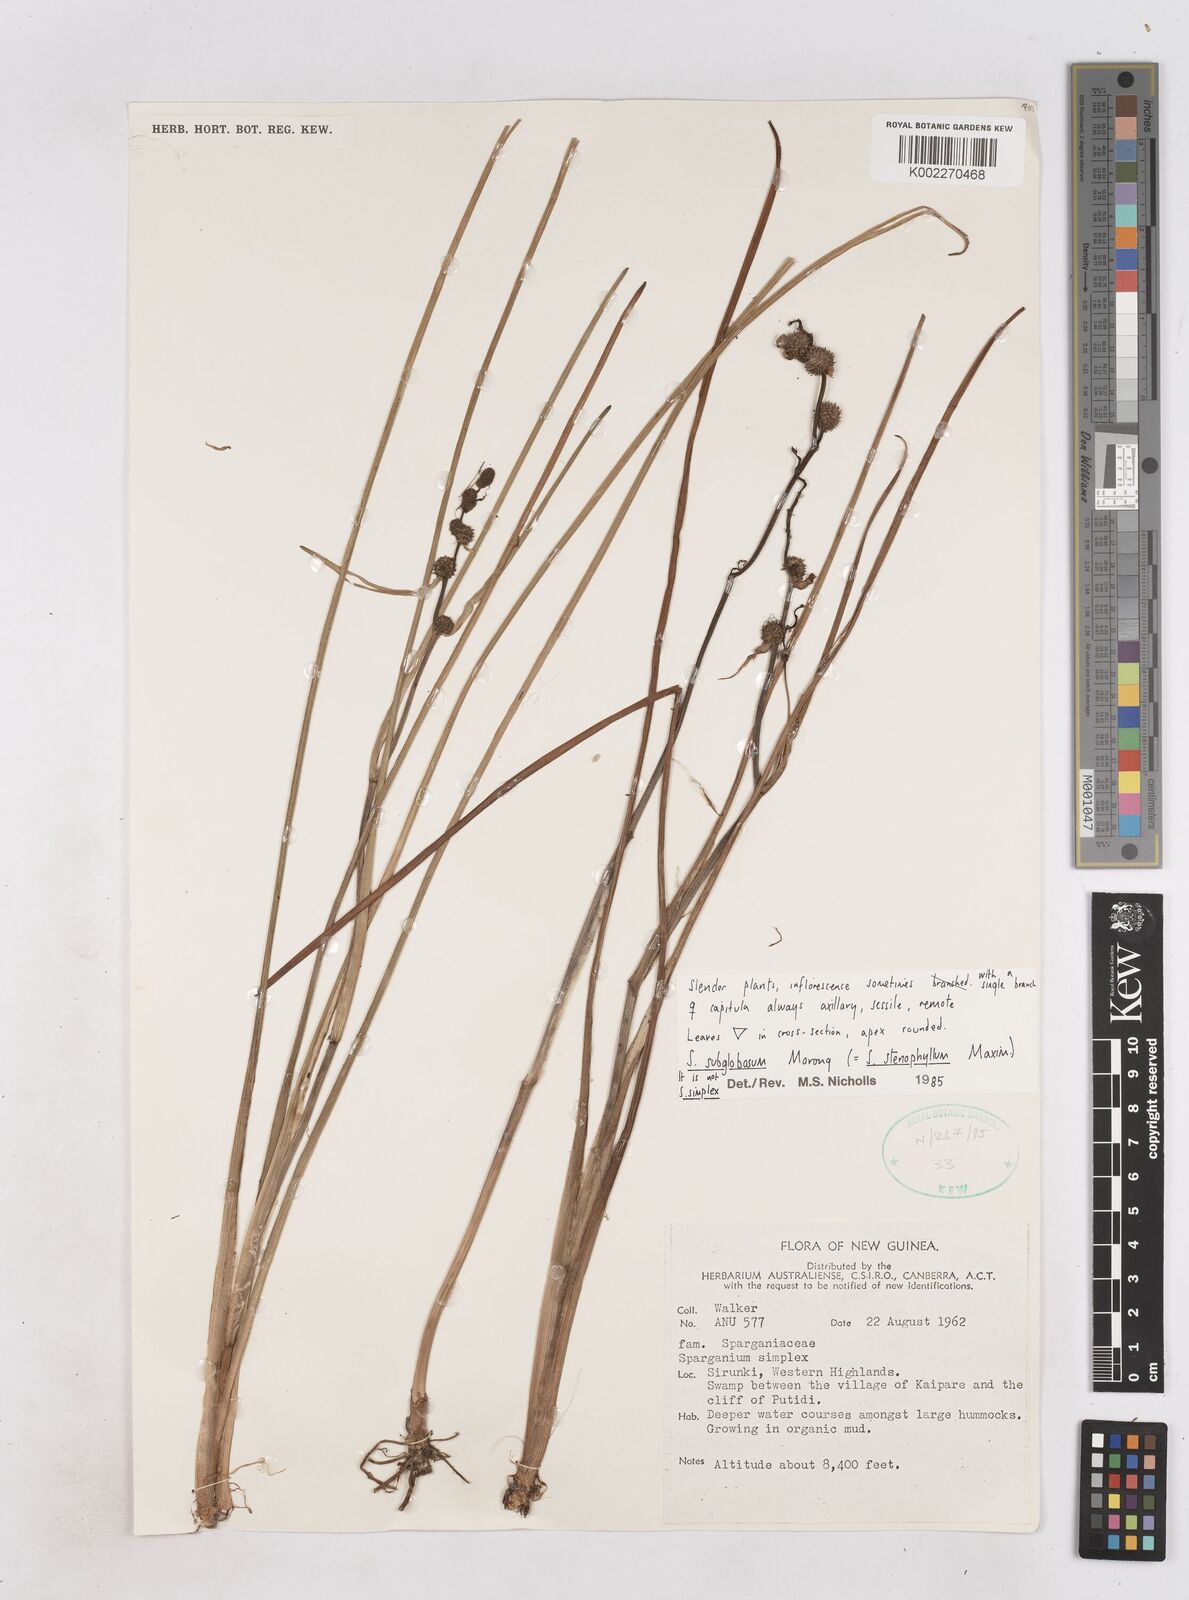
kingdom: Plantae
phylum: Tracheophyta
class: Liliopsida
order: Poales
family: Typhaceae
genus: Sparganium
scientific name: Sparganium subglobosum
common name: Burr­-reed
